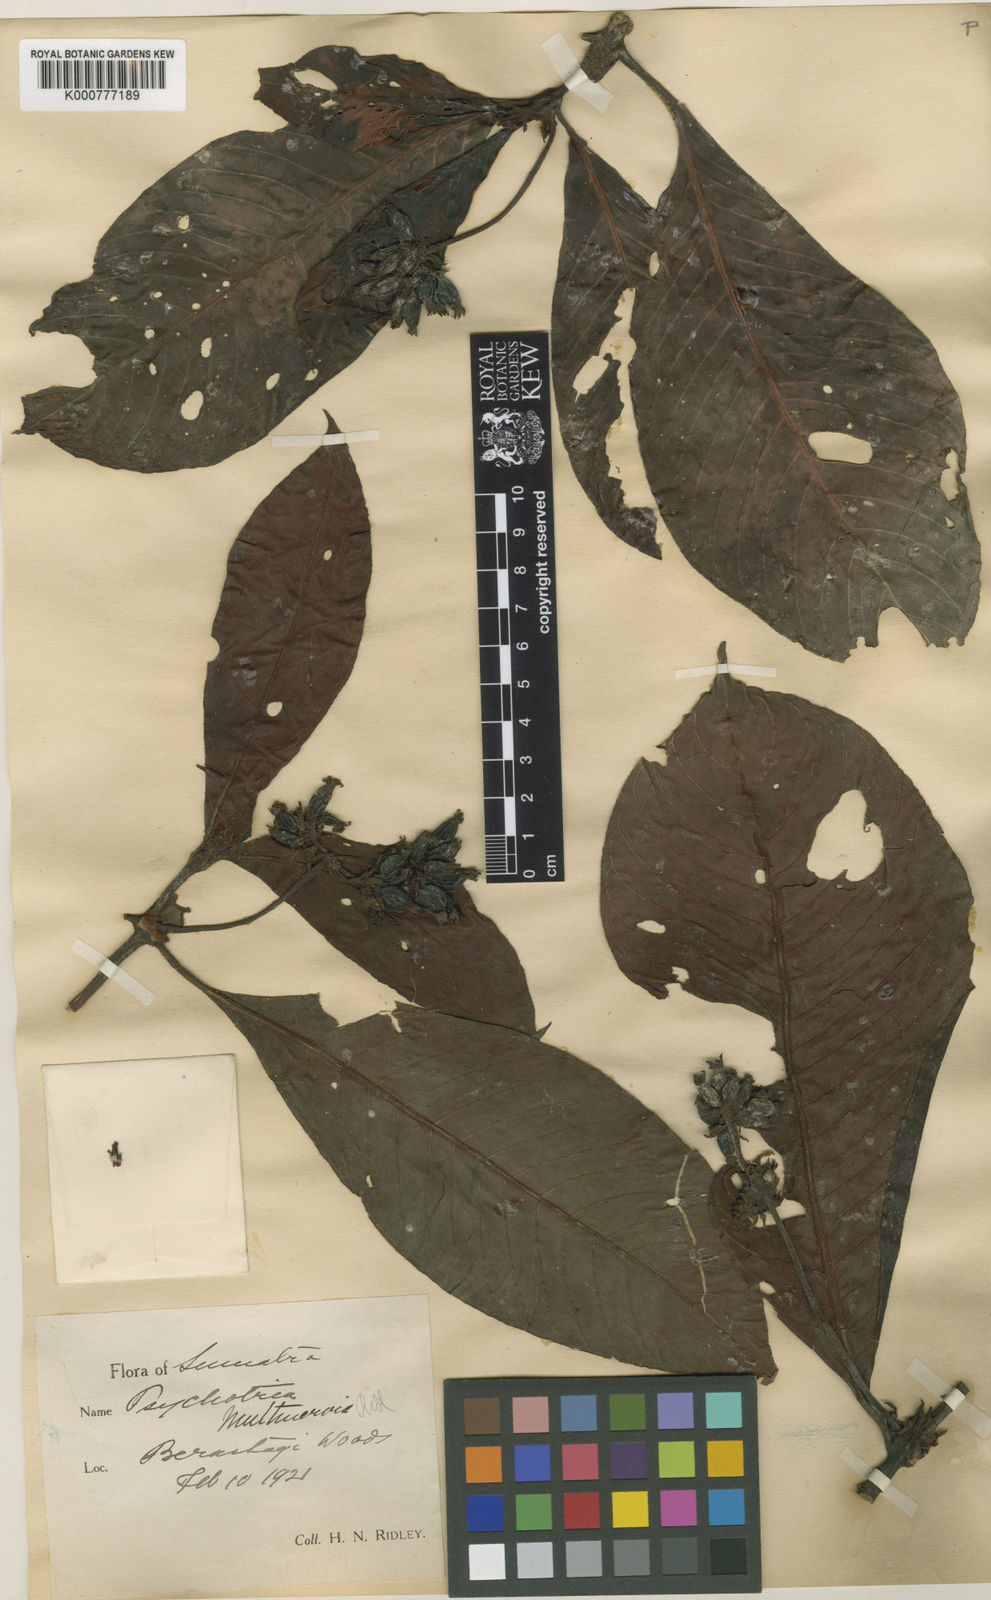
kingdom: Plantae
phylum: Tracheophyta
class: Magnoliopsida
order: Gentianales
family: Rubiaceae
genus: Psychotria
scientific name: Psychotria morindoides
